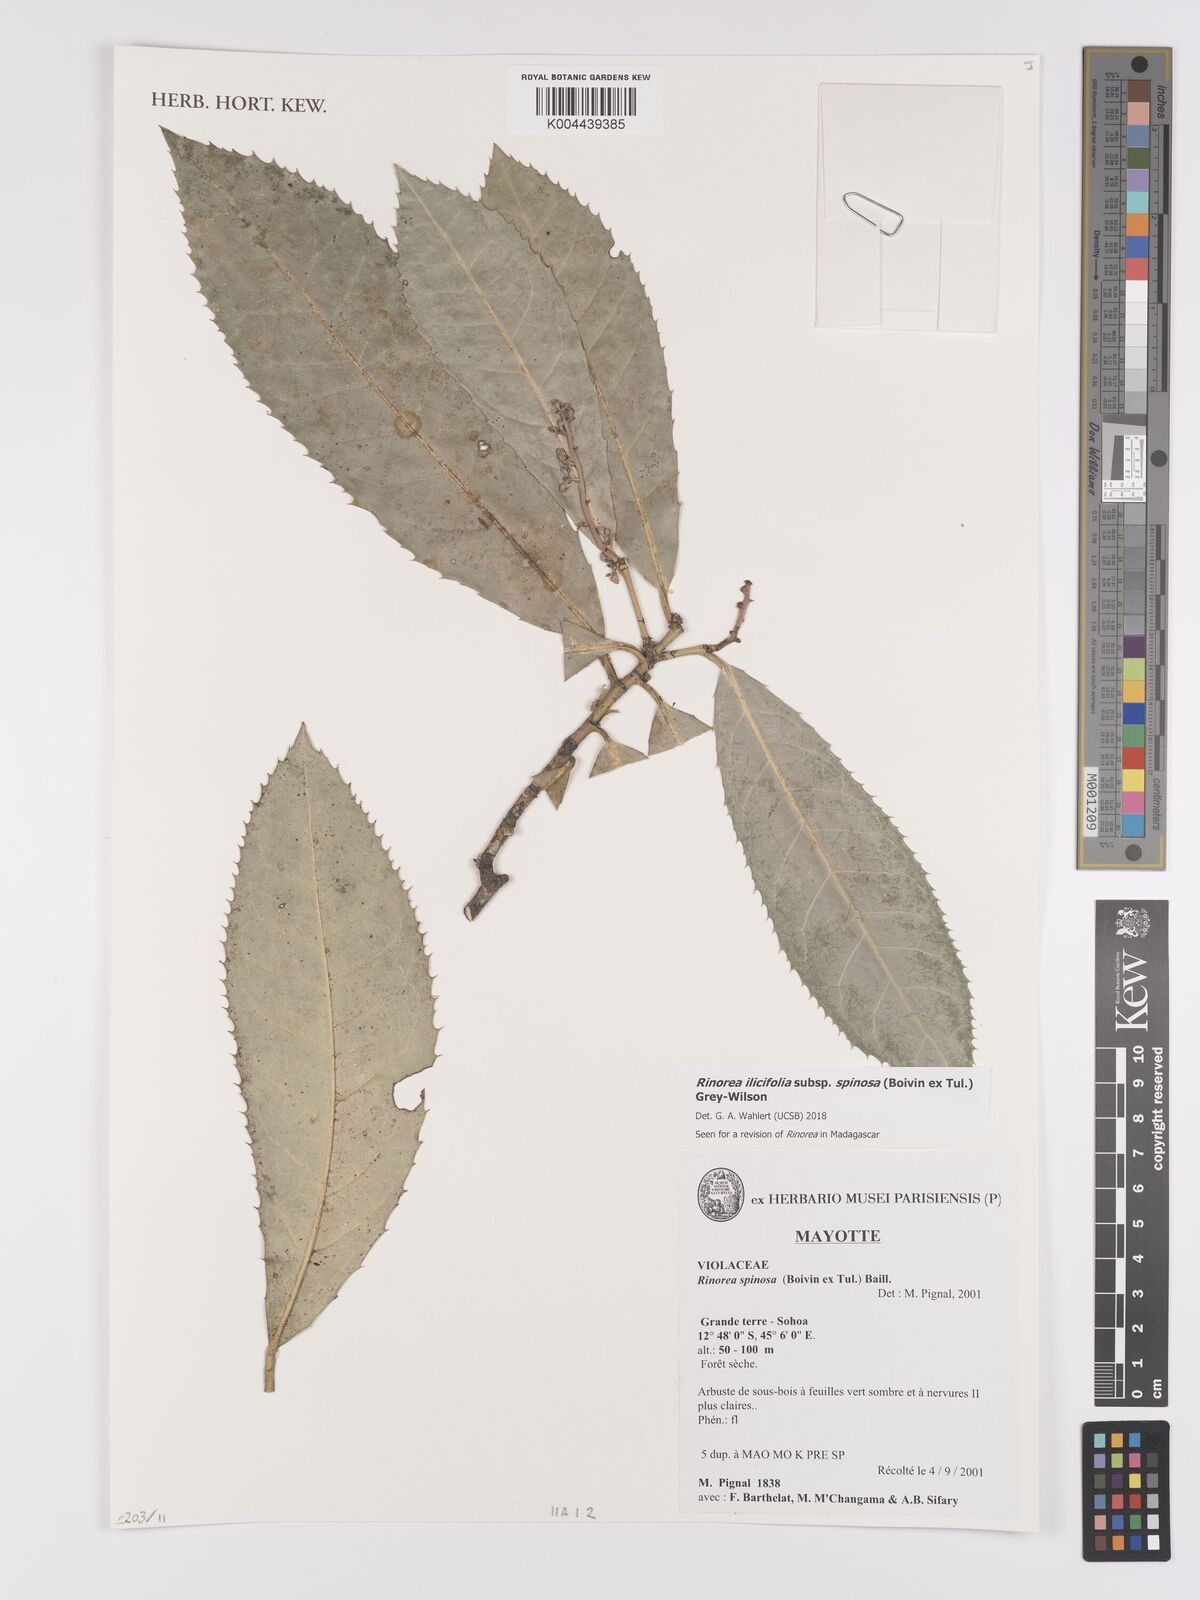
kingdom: Plantae
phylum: Tracheophyta
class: Magnoliopsida
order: Malpighiales
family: Violaceae
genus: Rinorea
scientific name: Rinorea spinosa
